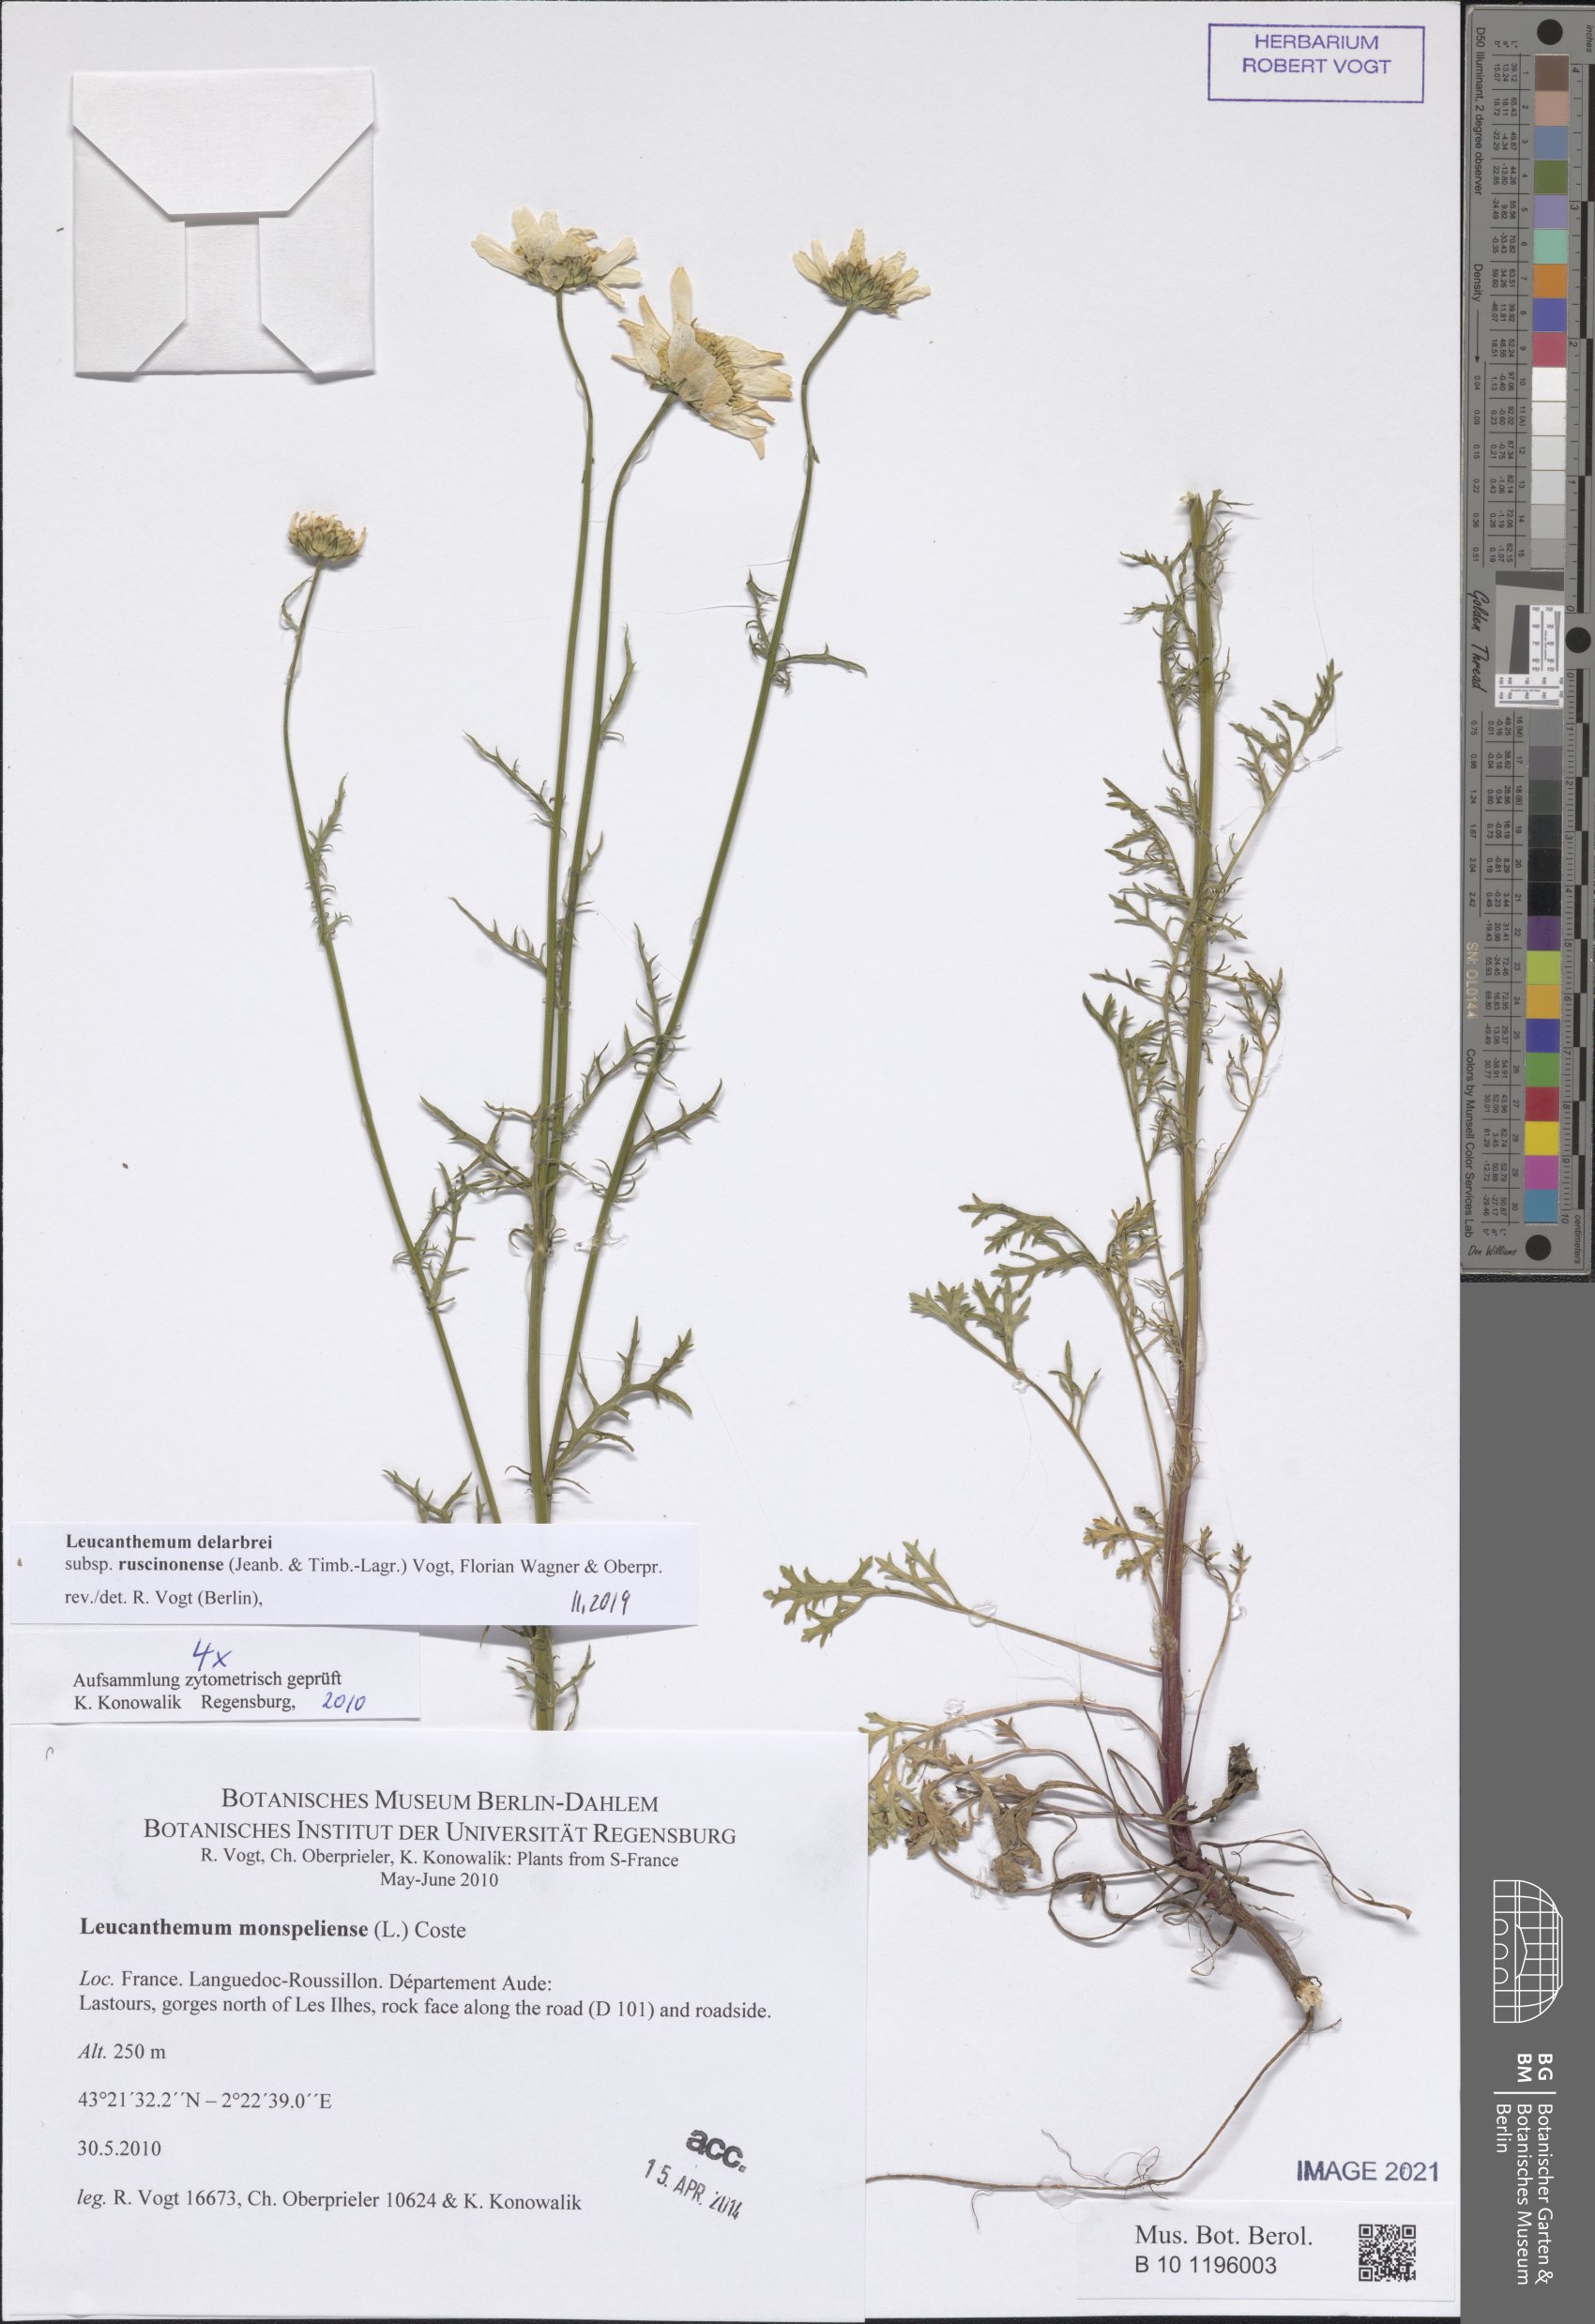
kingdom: Plantae
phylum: Tracheophyta
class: Magnoliopsida
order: Asterales
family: Asteraceae
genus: Leucanthemum
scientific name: Leucanthemum delarbrei
